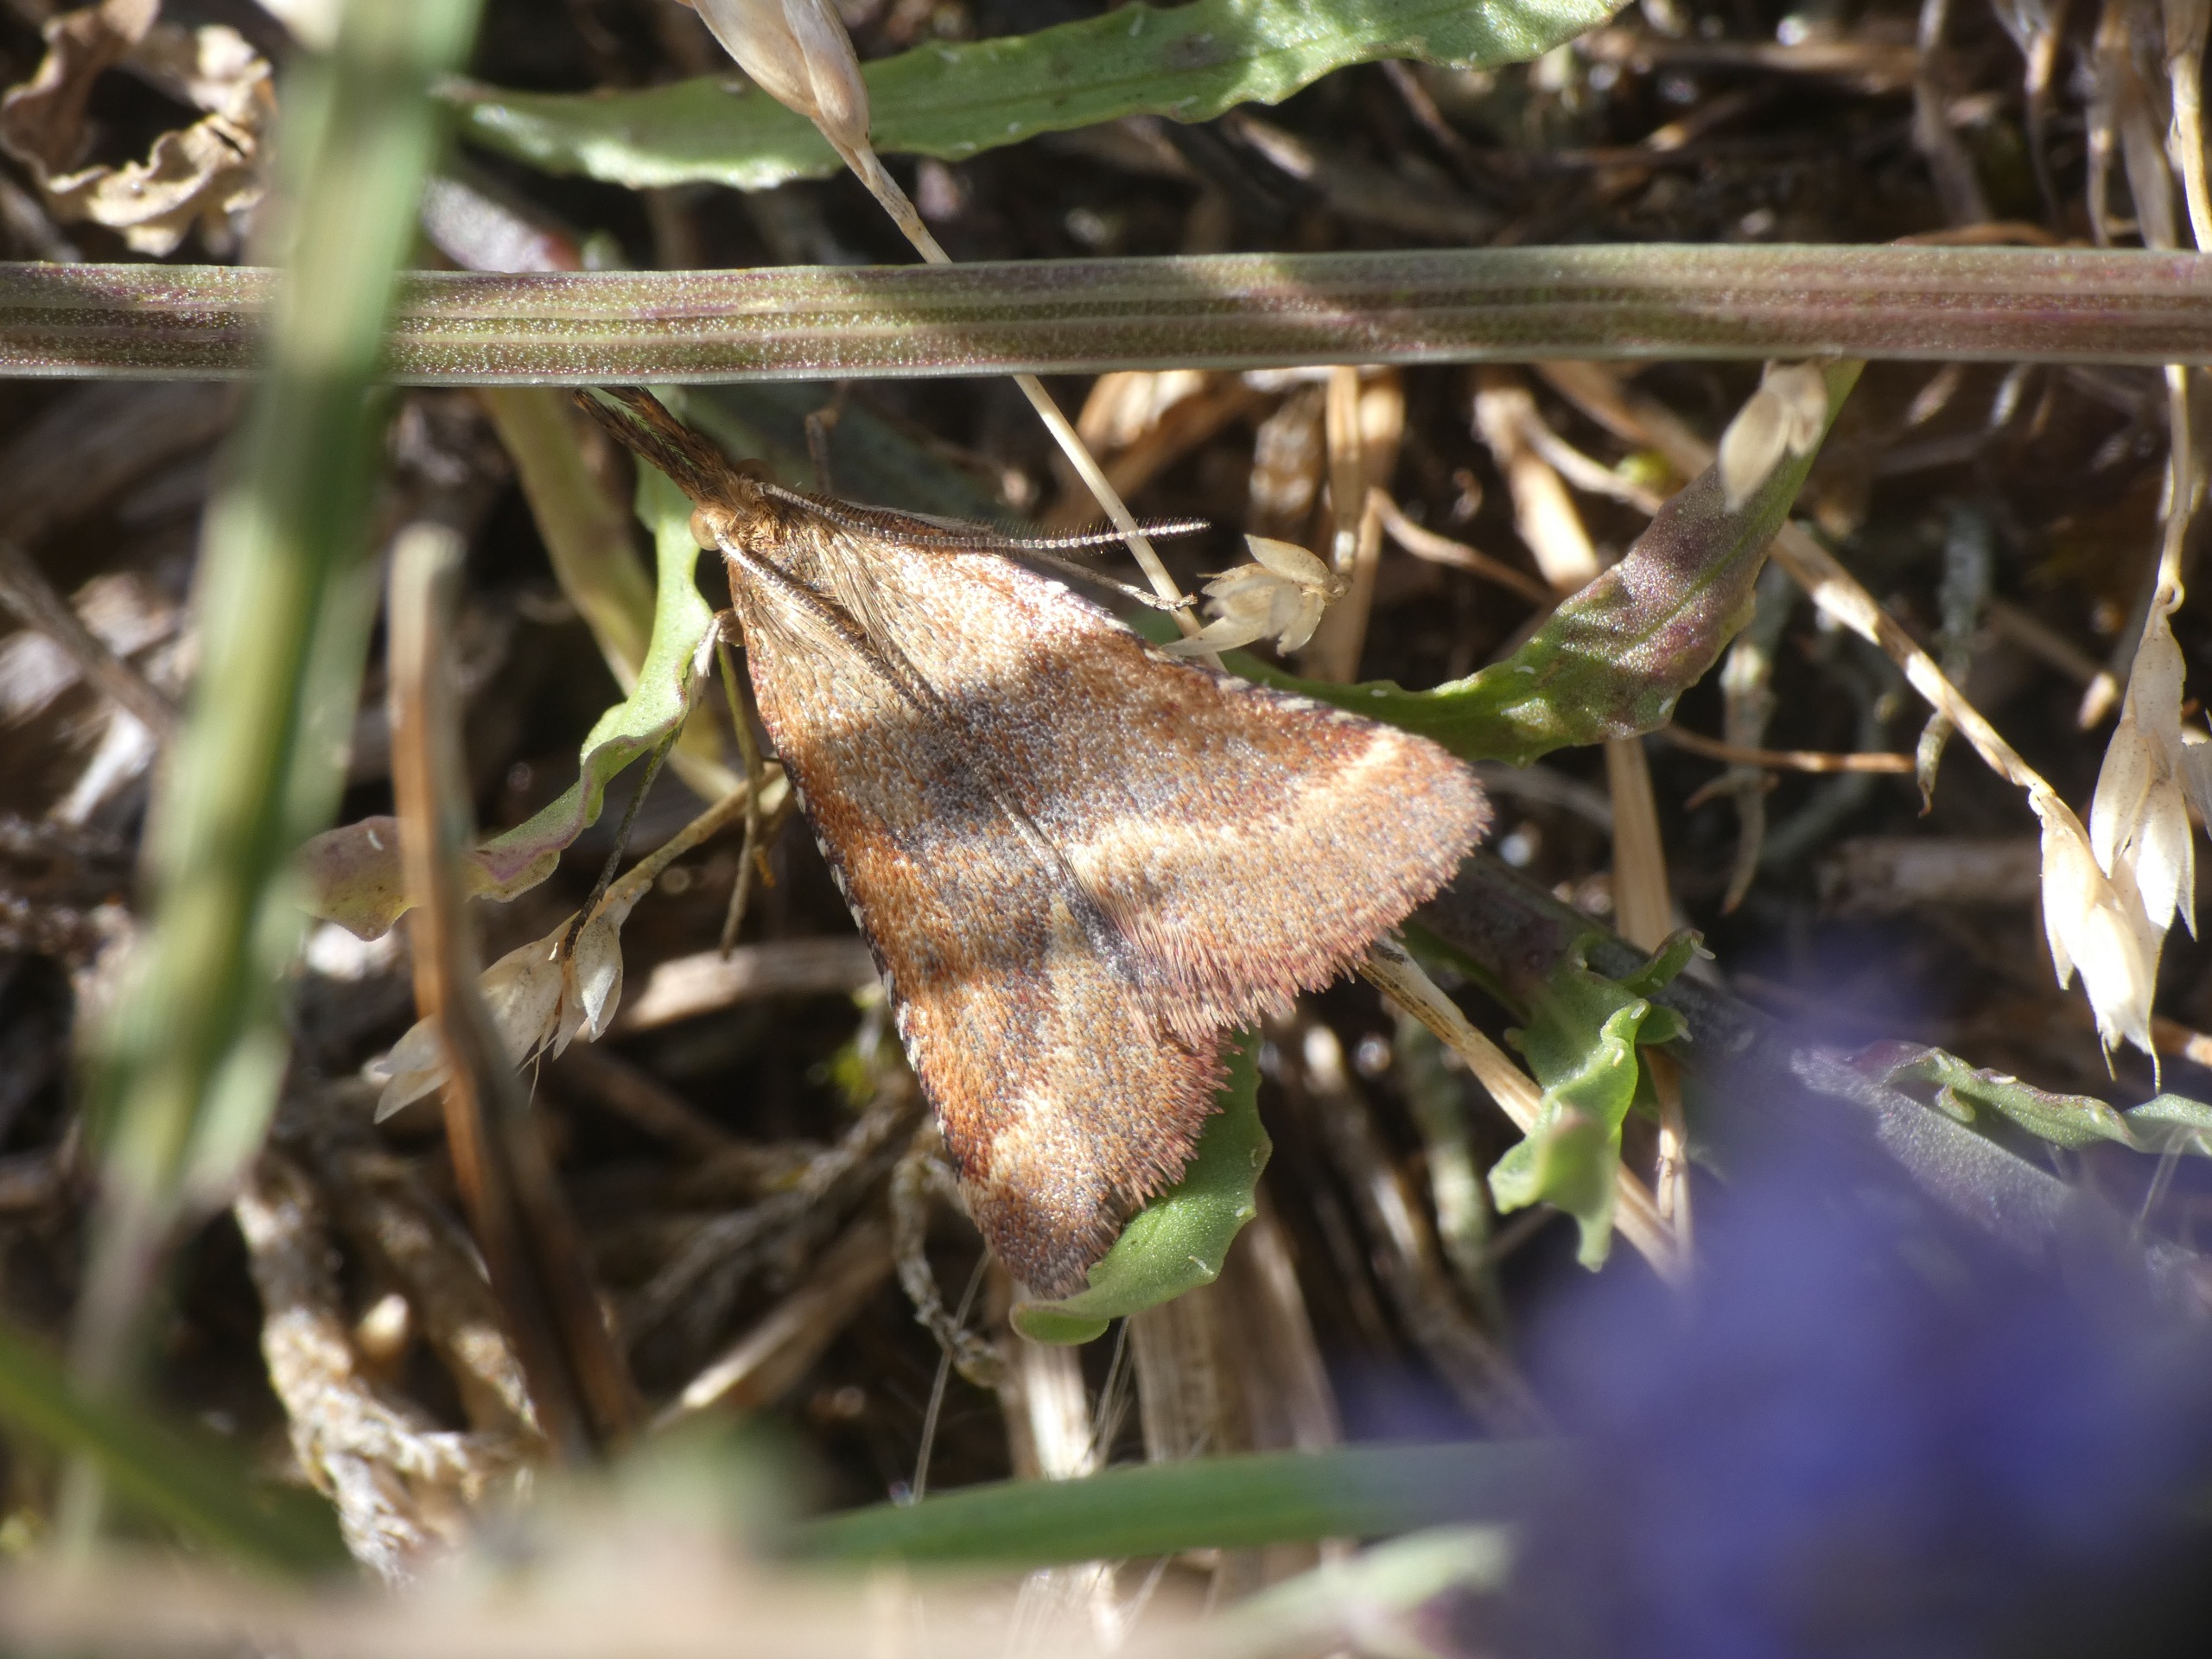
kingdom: Animalia
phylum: Arthropoda
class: Insecta
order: Lepidoptera
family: Pyralidae
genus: Synaphe
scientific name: Synaphe punctalis
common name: Spidsvinget moshalvmøl
